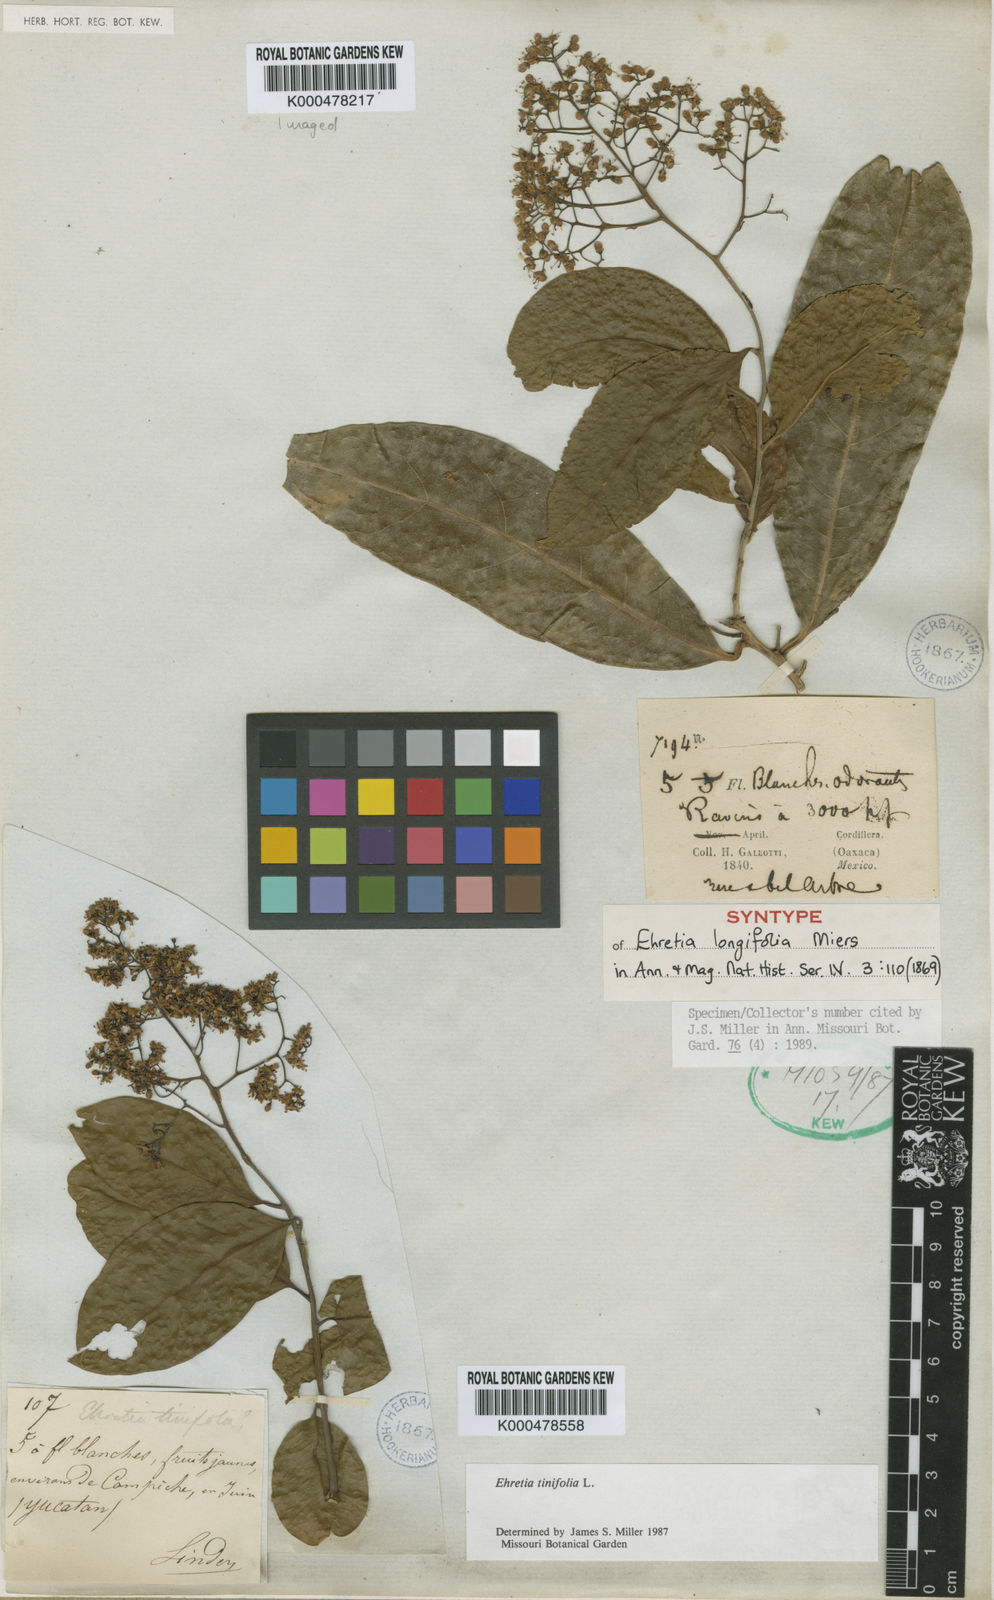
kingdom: Plantae
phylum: Tracheophyta
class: Magnoliopsida
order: Boraginales
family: Ehretiaceae
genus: Ehretia
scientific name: Ehretia tinifolia
